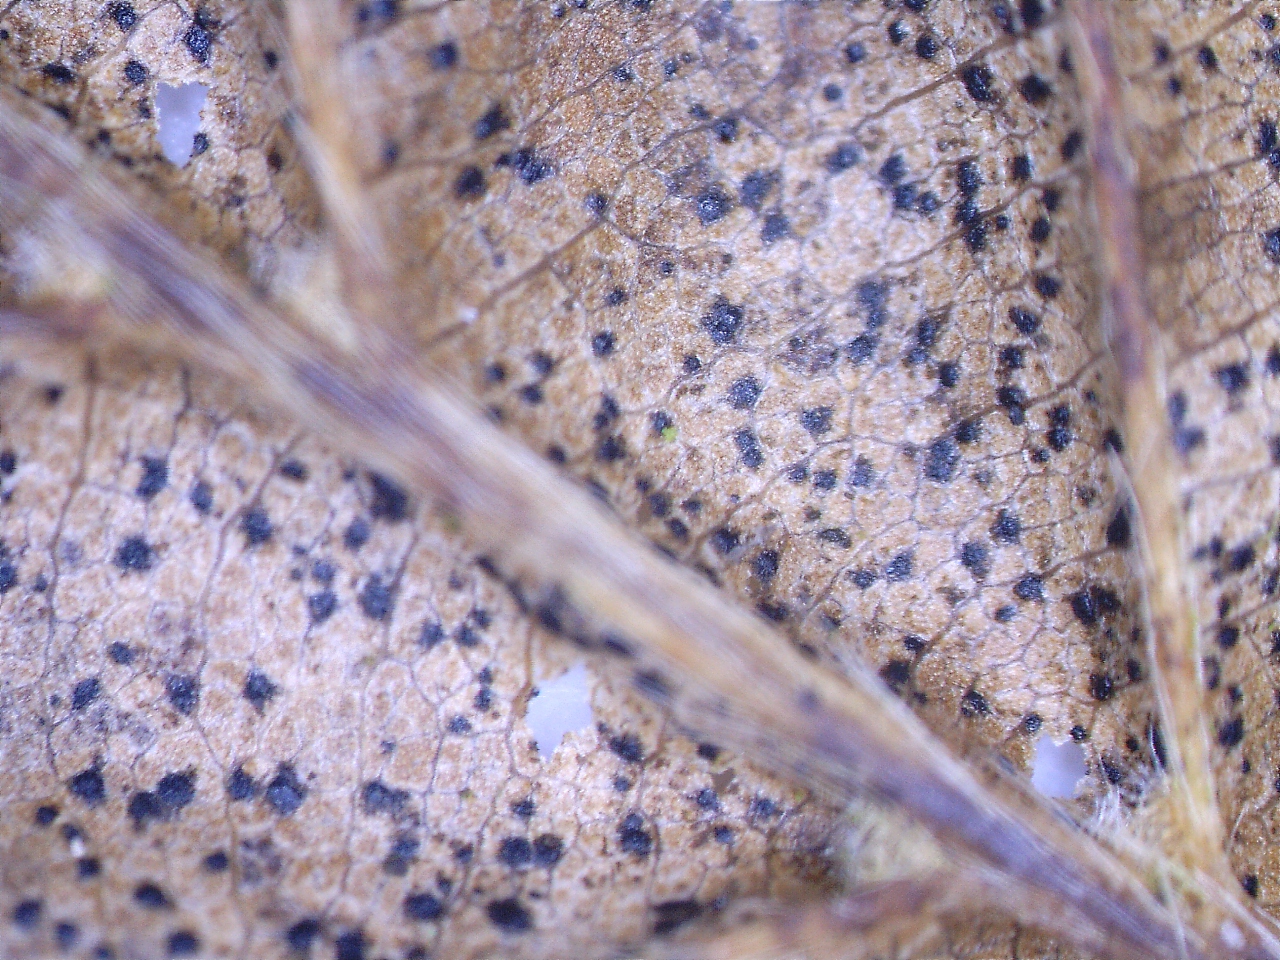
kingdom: Fungi
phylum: Ascomycota
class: Dothideomycetes
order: Capnodiales
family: Mycosphaerellaceae
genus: Mycosphaerella
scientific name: Mycosphaerella
